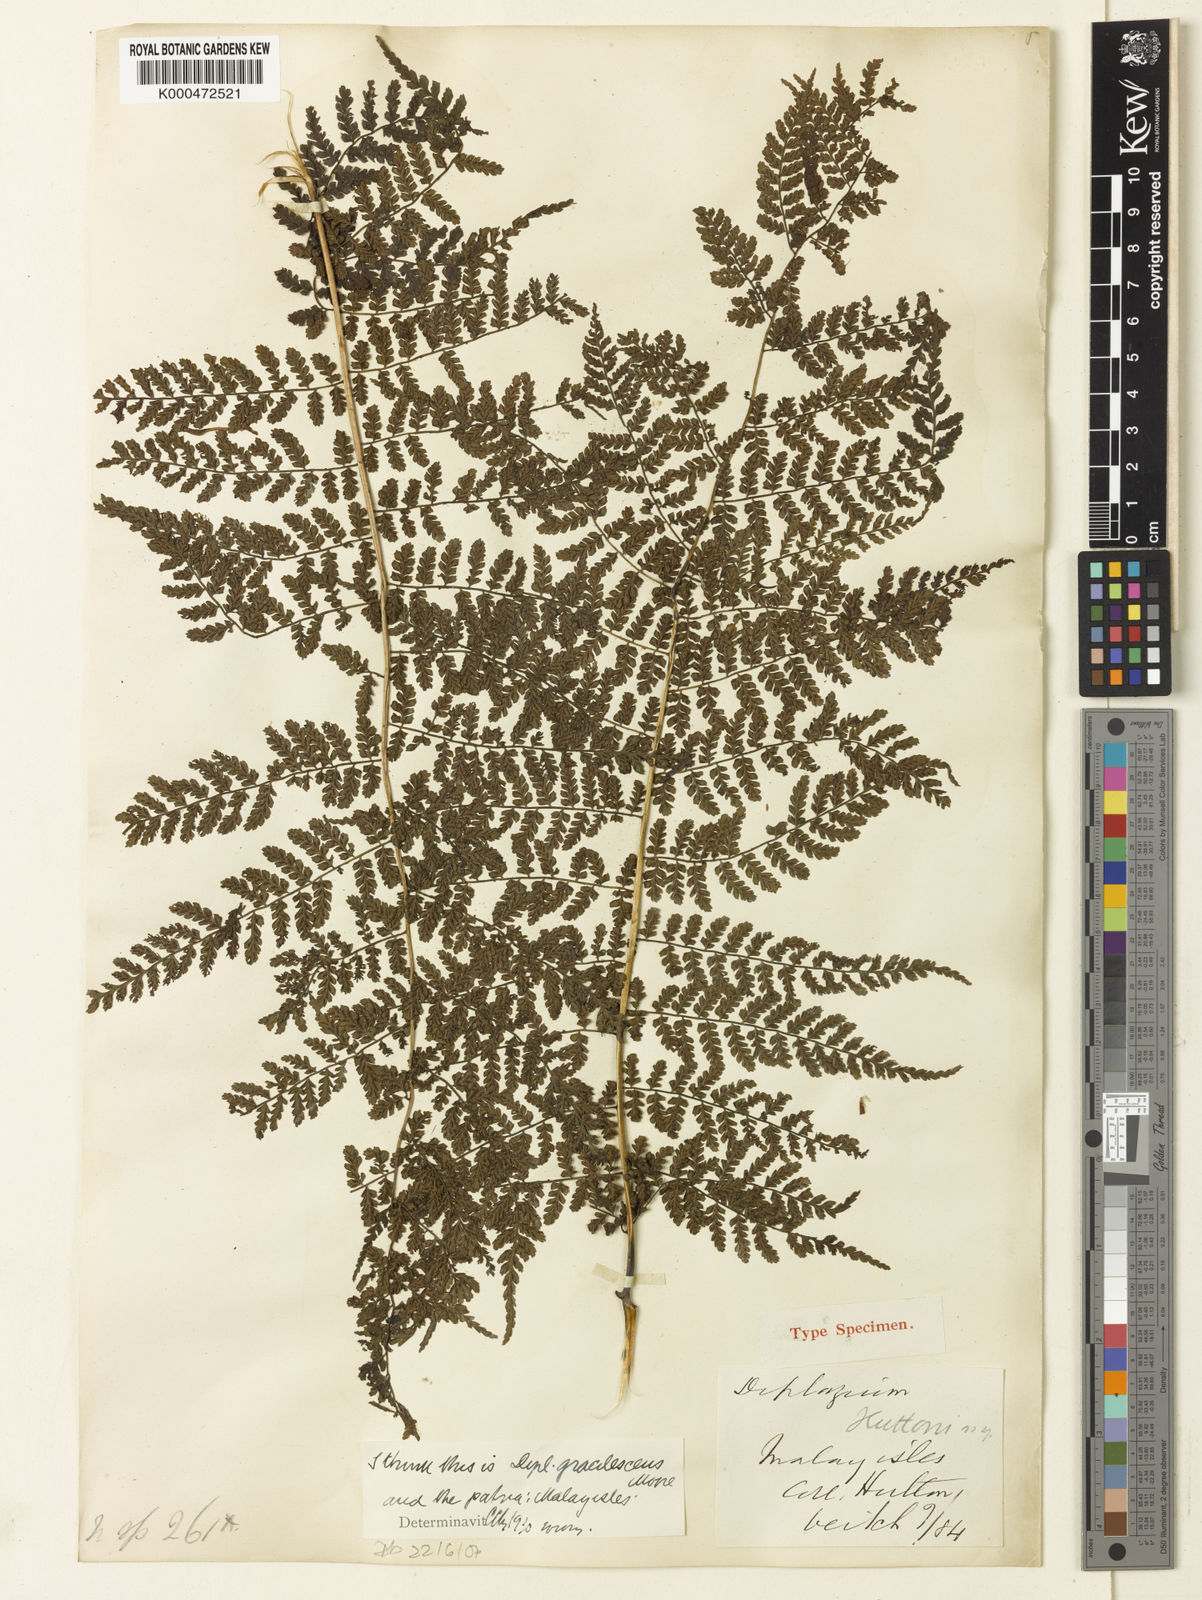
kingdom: Plantae
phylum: Tracheophyta
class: Polypodiopsida
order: Polypodiales
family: Athyriaceae
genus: Diplazium
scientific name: Diplazium huttonii
